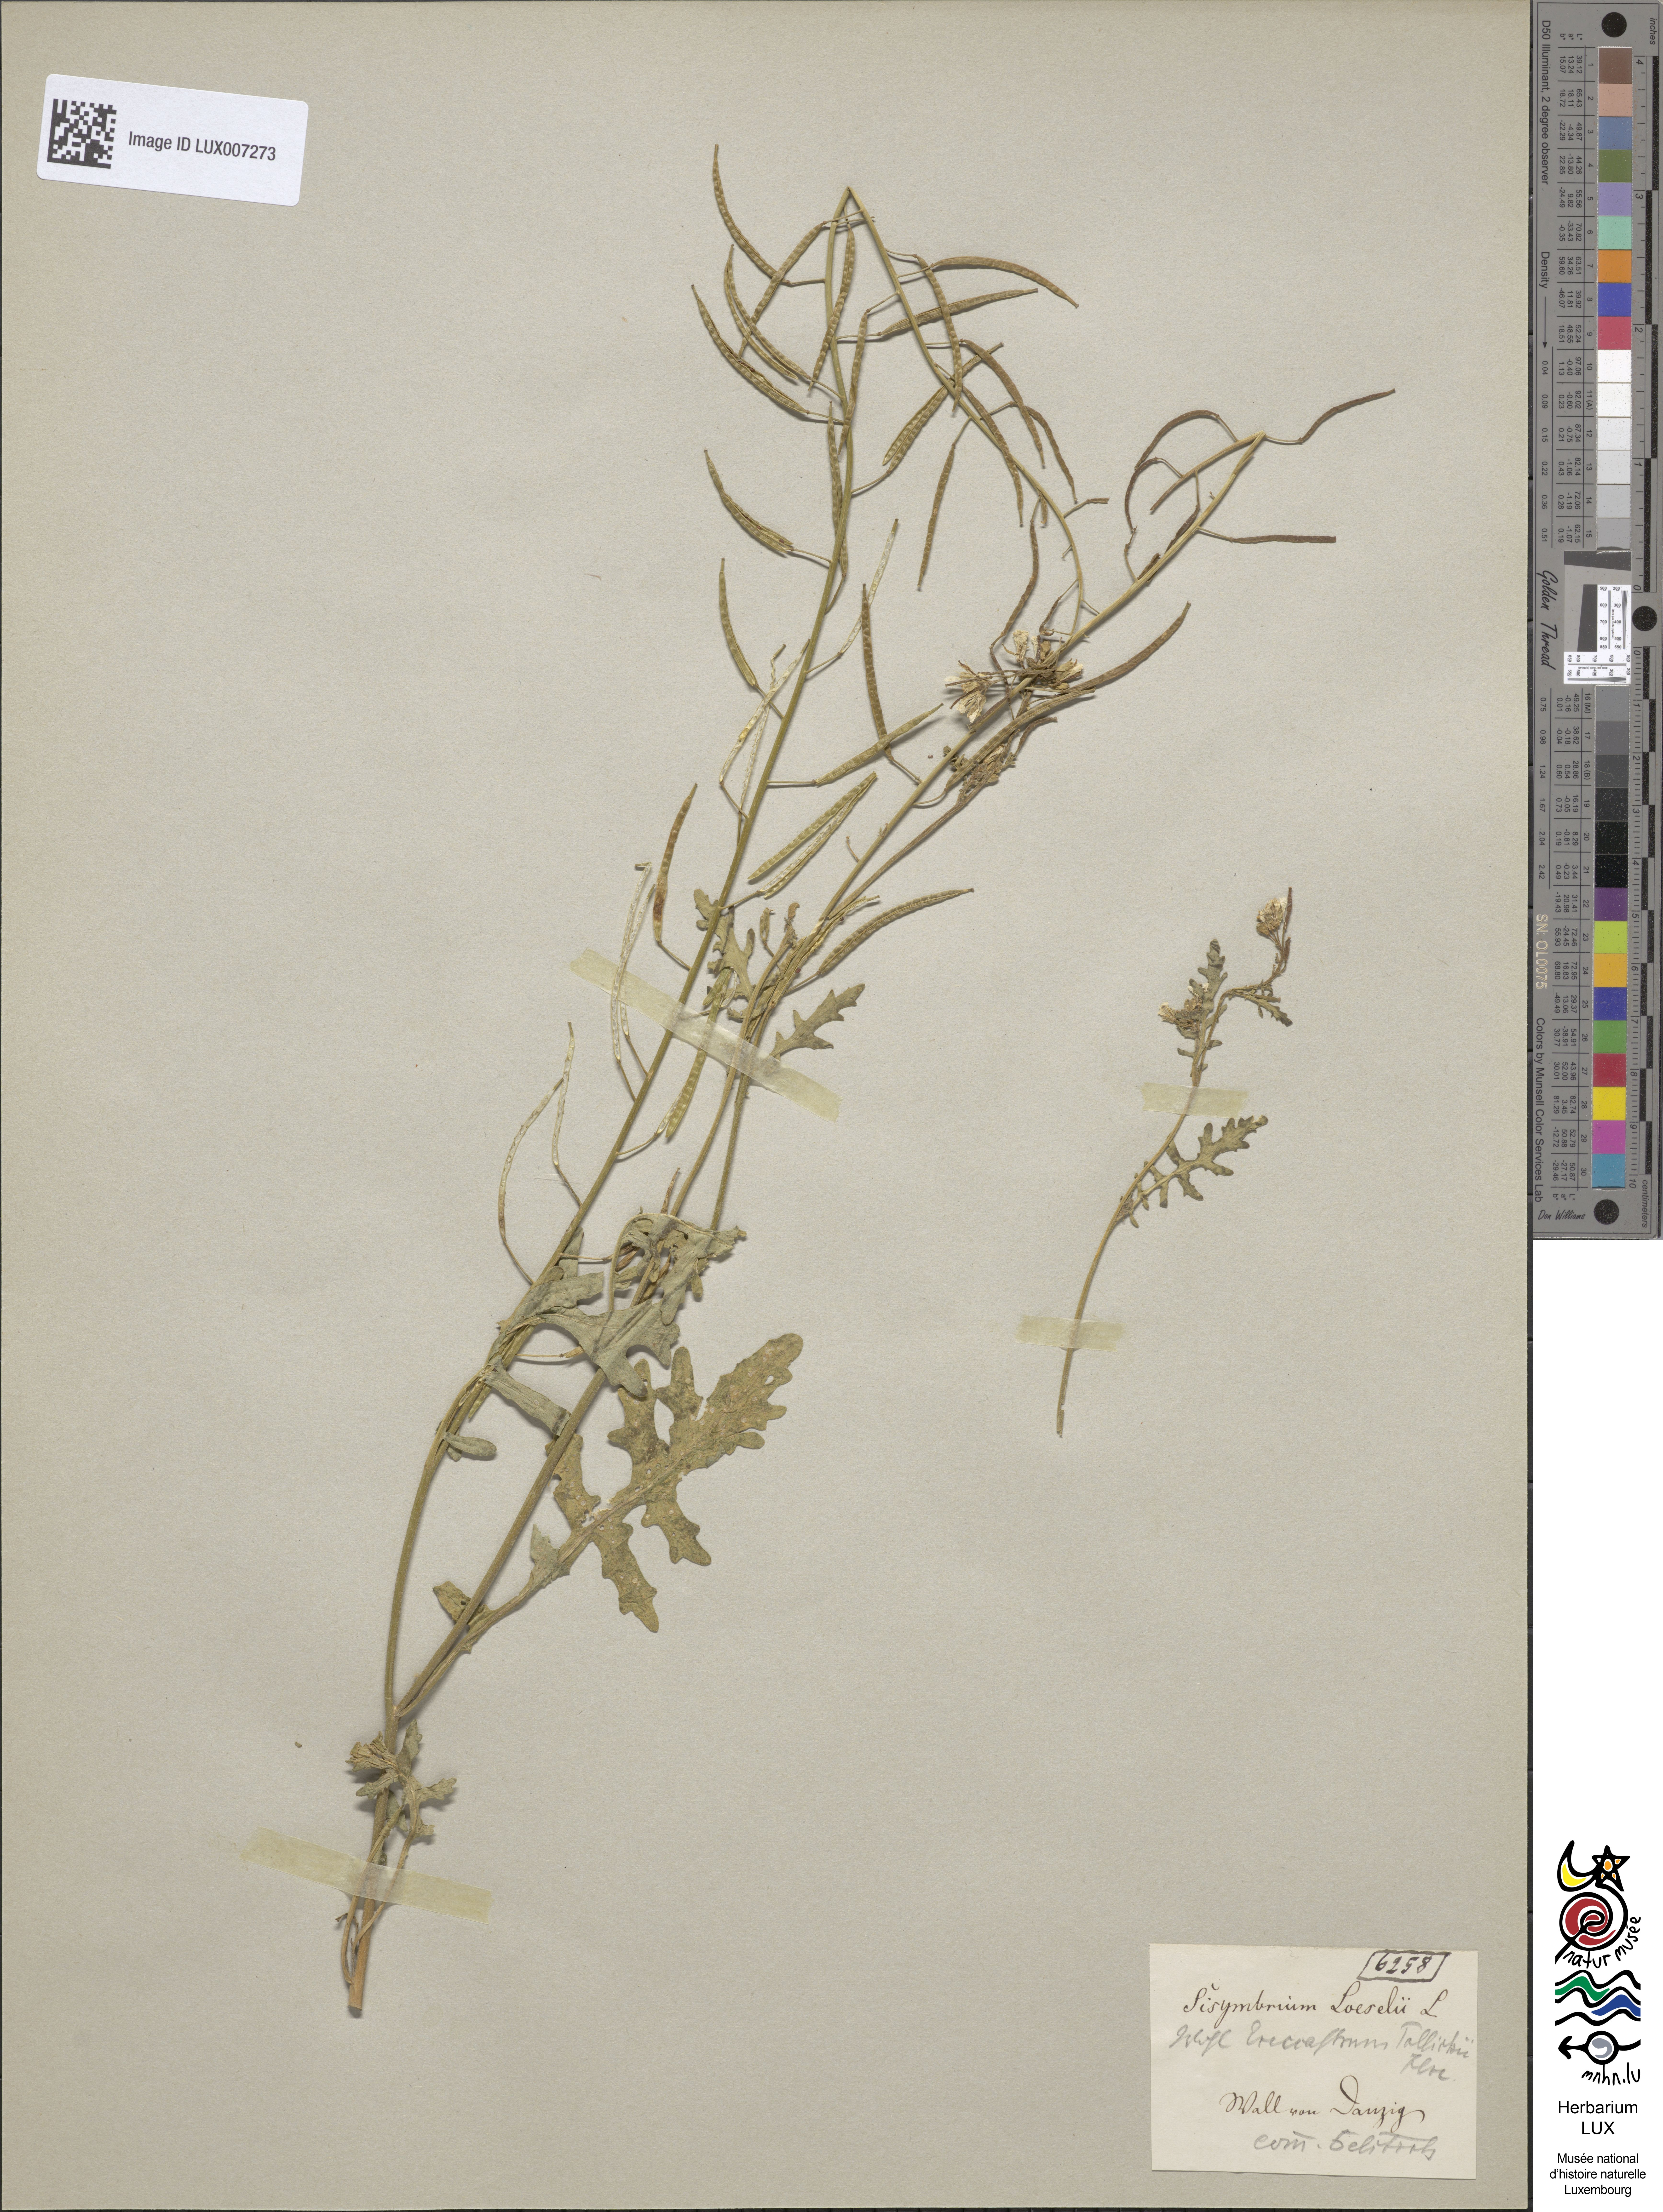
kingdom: Plantae
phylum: Tracheophyta
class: Magnoliopsida
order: Brassicales
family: Brassicaceae
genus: Erucastrum
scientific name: Erucastrum gallicum
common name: Hairy rocket
